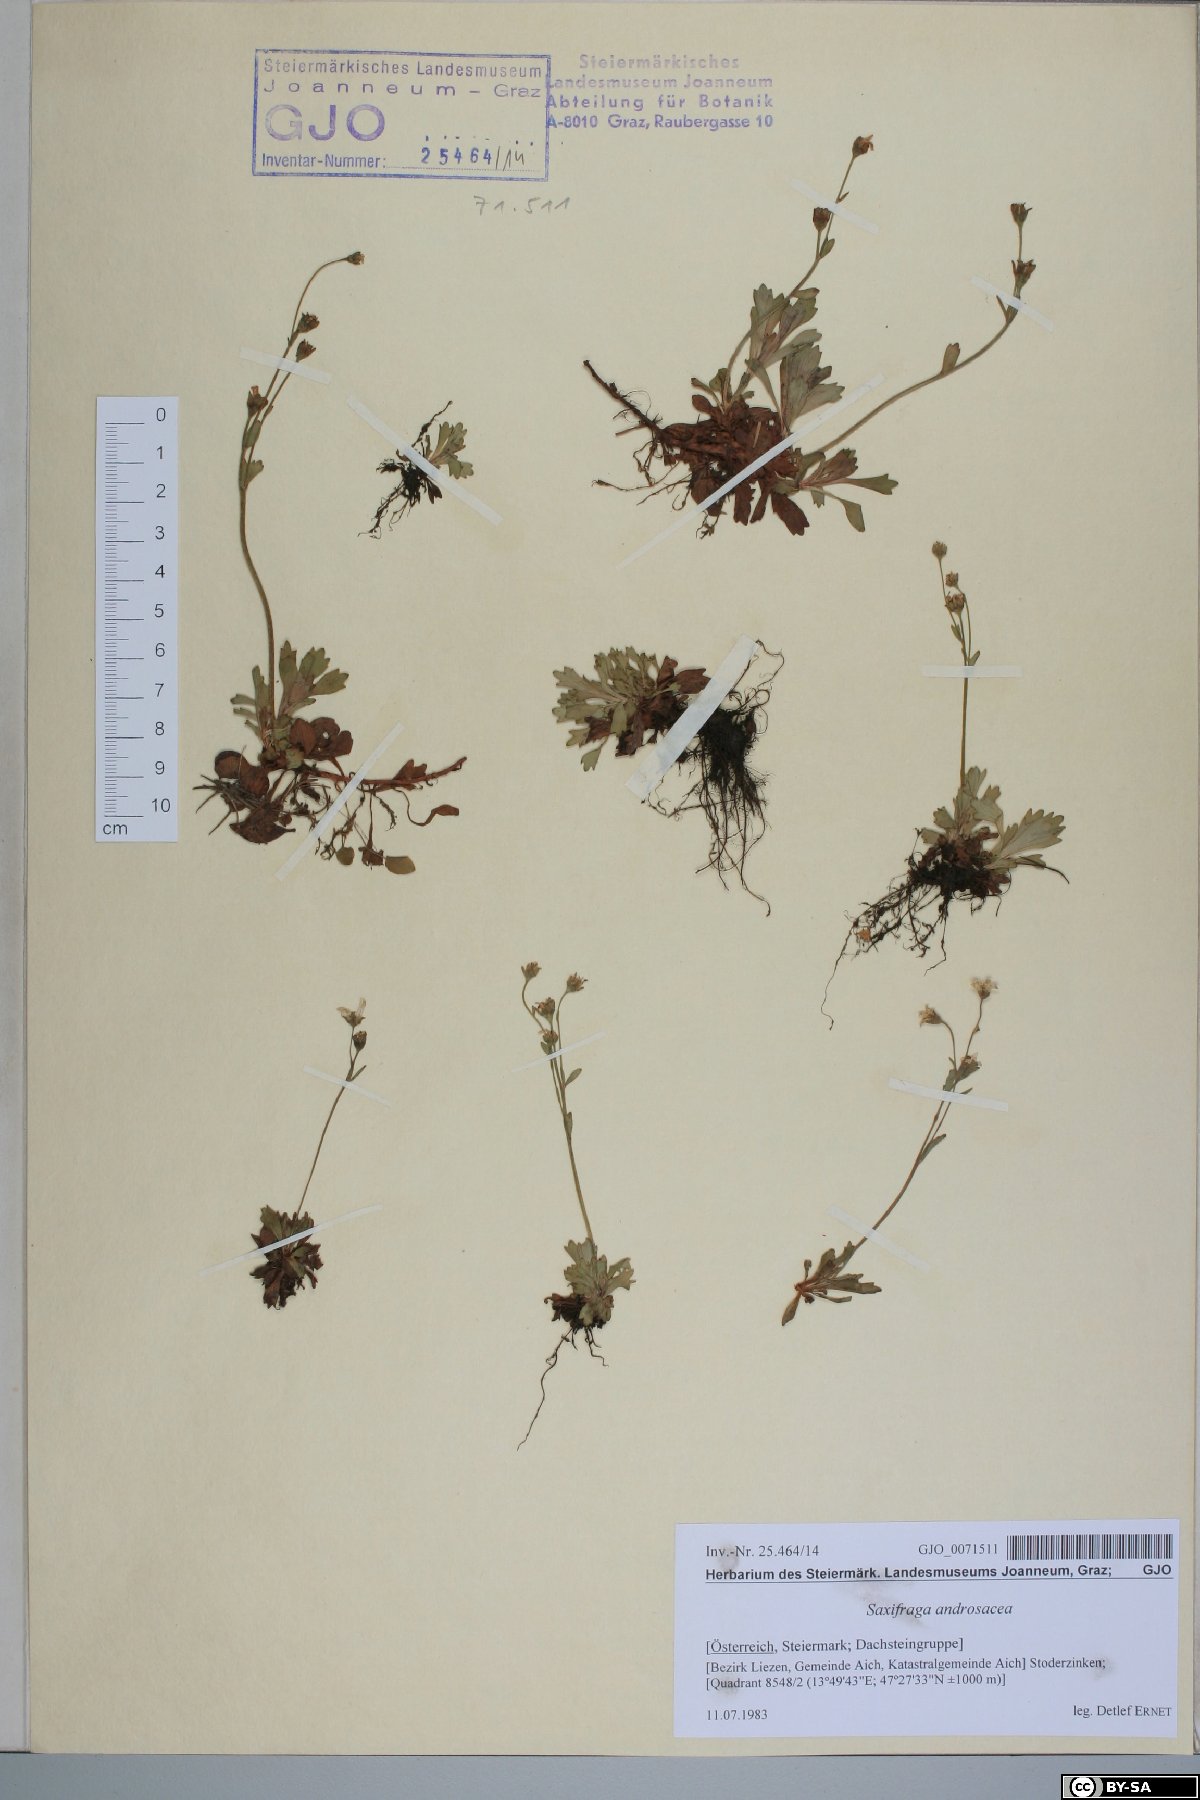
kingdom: Plantae
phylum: Tracheophyta
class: Magnoliopsida
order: Saxifragales
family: Saxifragaceae
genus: Saxifraga
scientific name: Saxifraga androsacea
